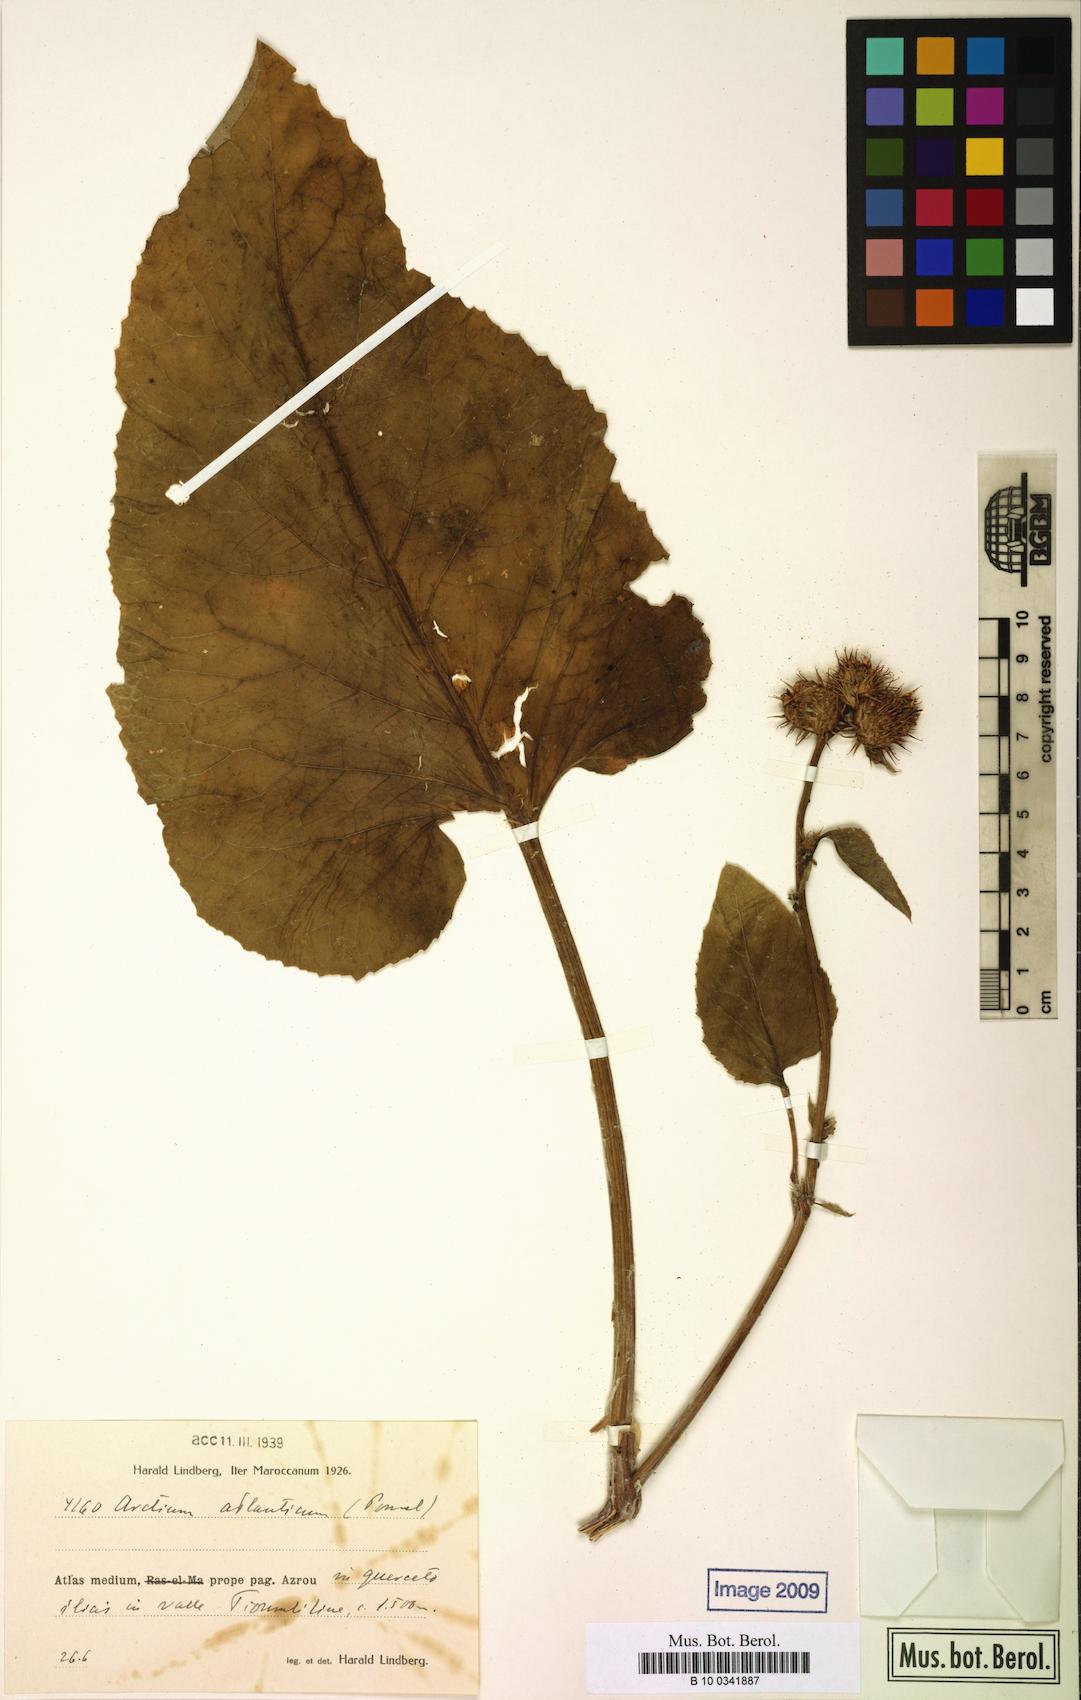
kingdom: Plantae
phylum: Tracheophyta
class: Magnoliopsida
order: Asterales
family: Asteraceae
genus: Arctium
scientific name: Arctium atlanticum
